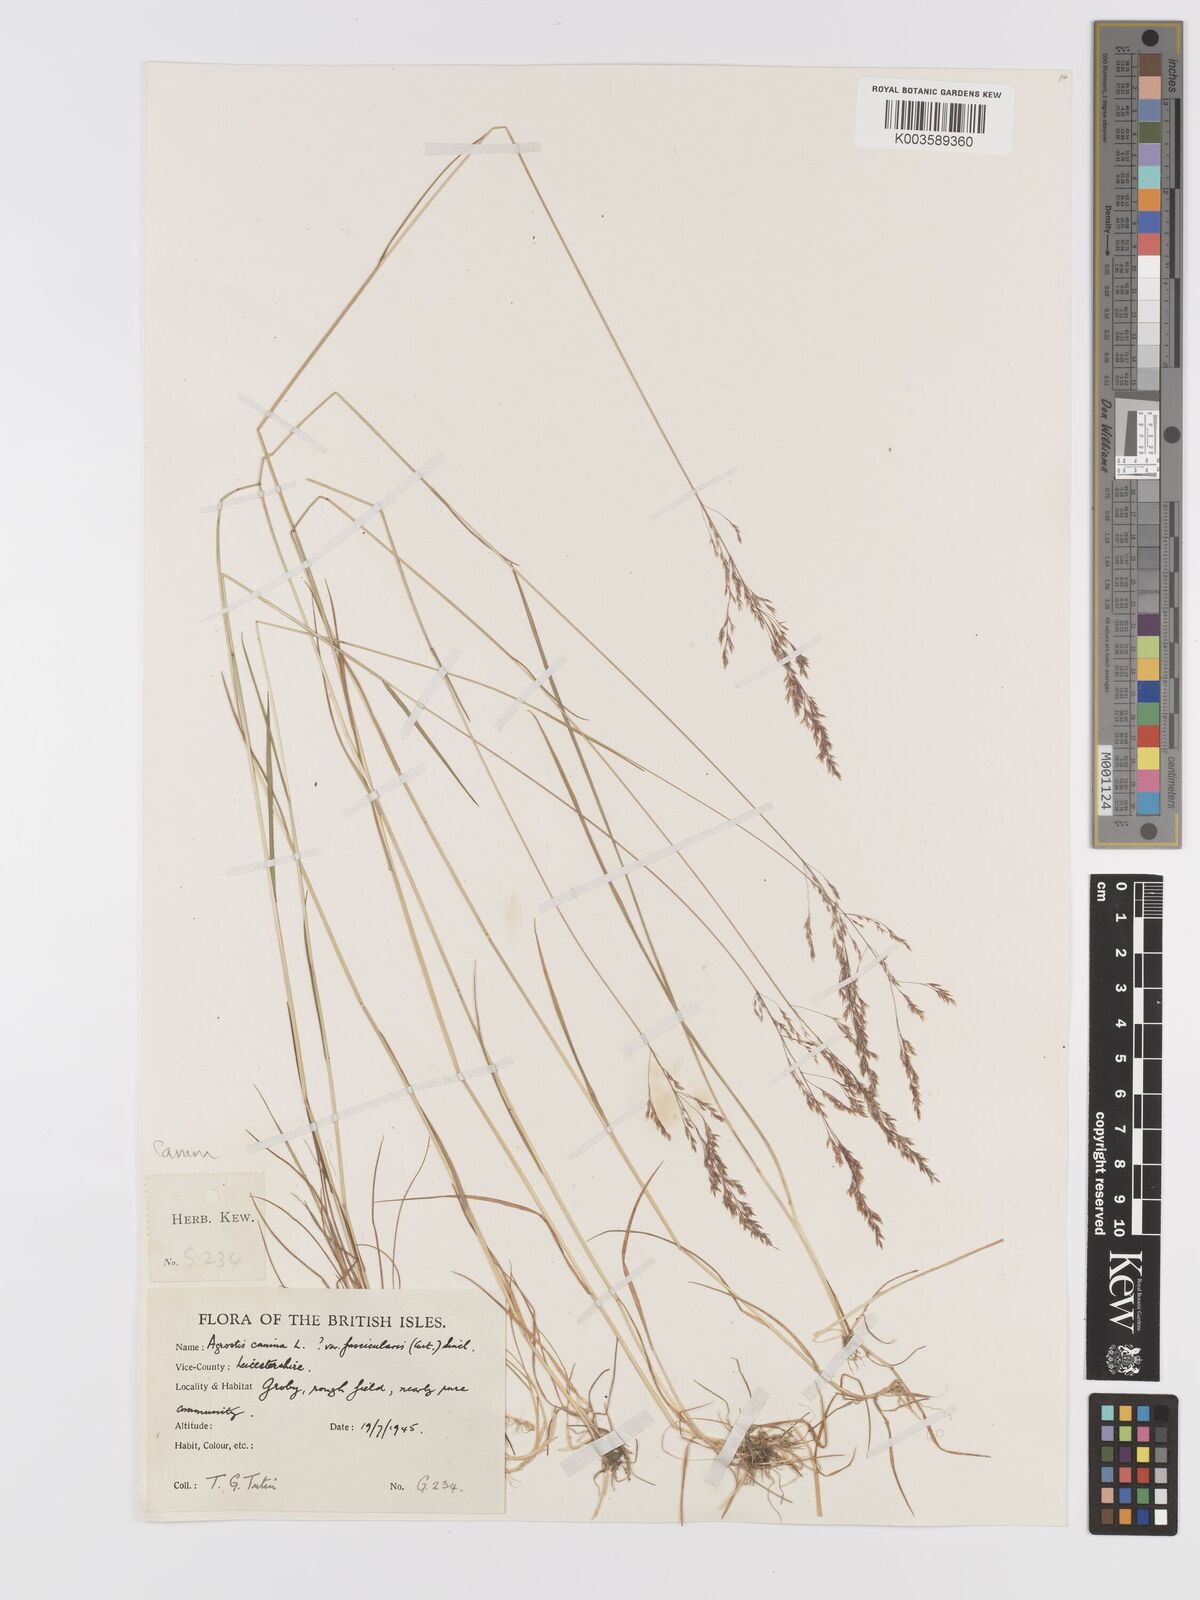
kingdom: Plantae
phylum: Tracheophyta
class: Liliopsida
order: Poales
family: Poaceae
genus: Agrostis
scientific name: Agrostis canina
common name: Velvet bent
